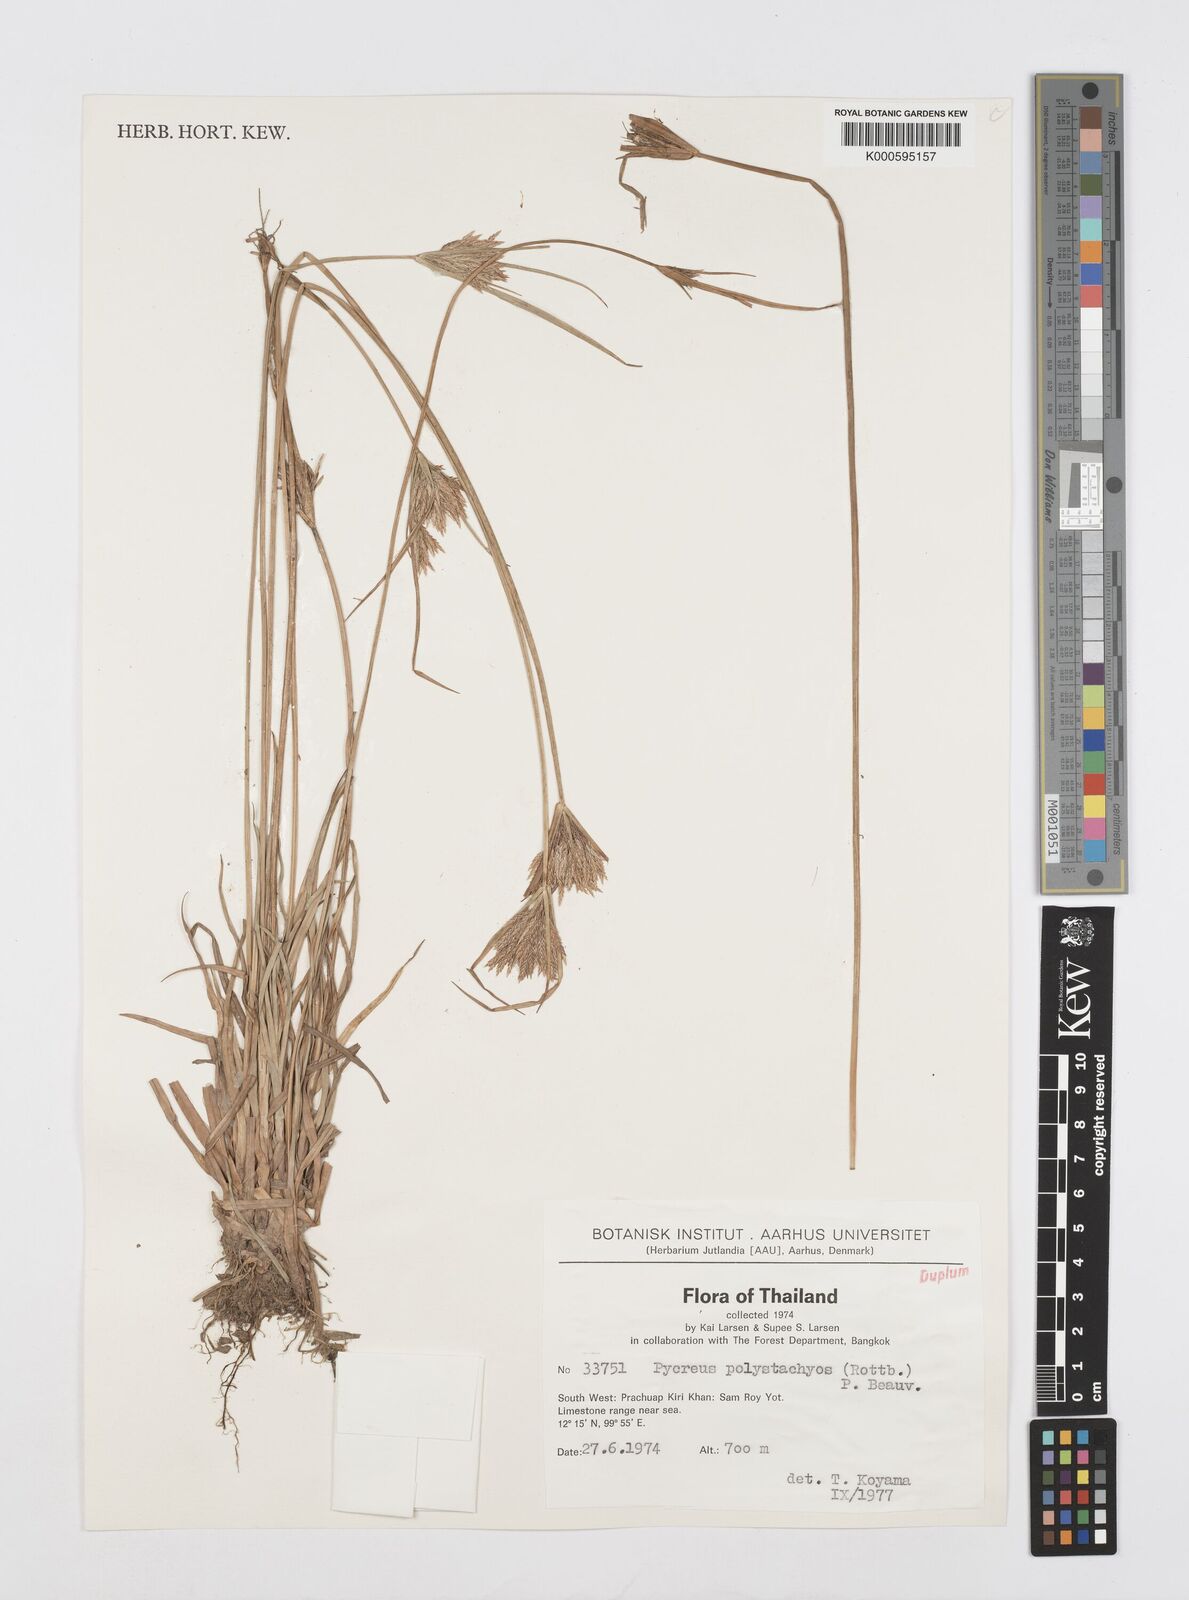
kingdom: Plantae
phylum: Tracheophyta
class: Liliopsida
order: Poales
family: Cyperaceae
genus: Cyperus
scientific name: Cyperus polystachyos
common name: Bunchy flat sedge
